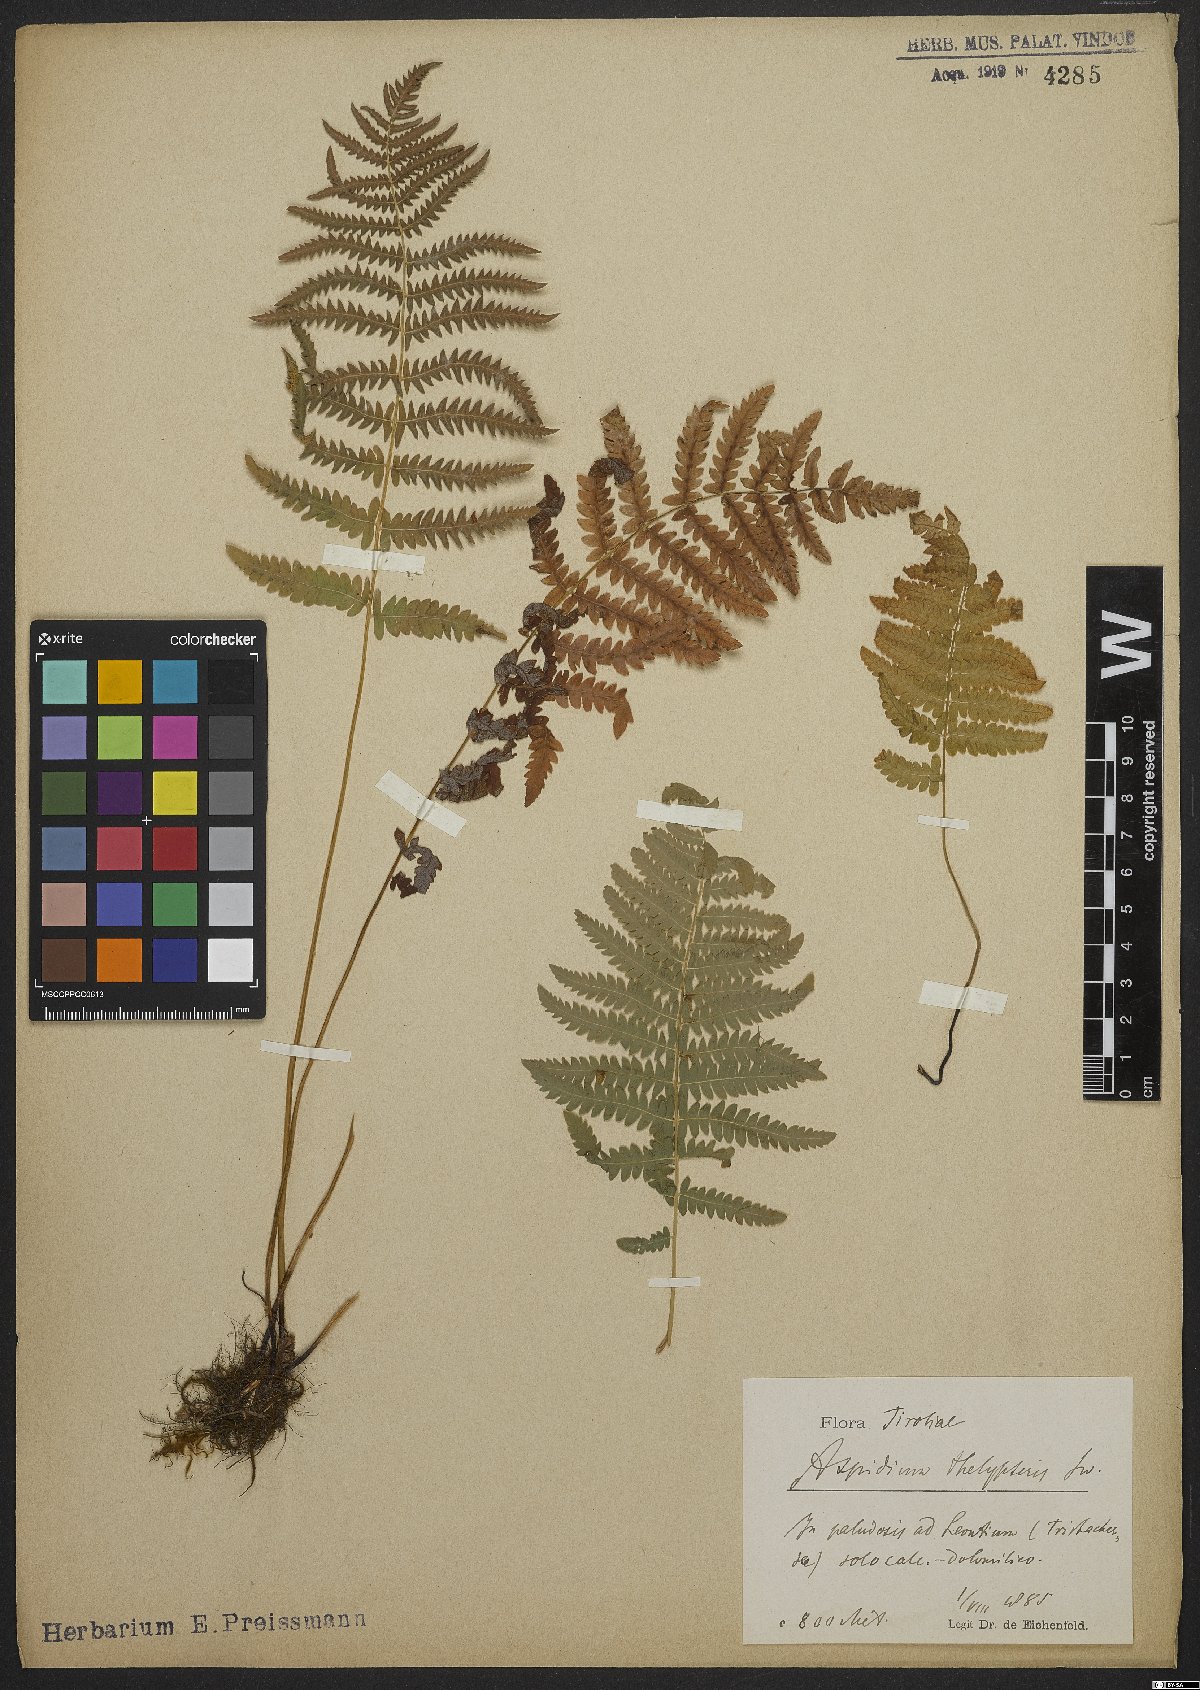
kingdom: Plantae
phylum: Tracheophyta
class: Polypodiopsida
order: Polypodiales
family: Thelypteridaceae
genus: Thelypteris
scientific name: Thelypteris palustris
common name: Marsh fern
